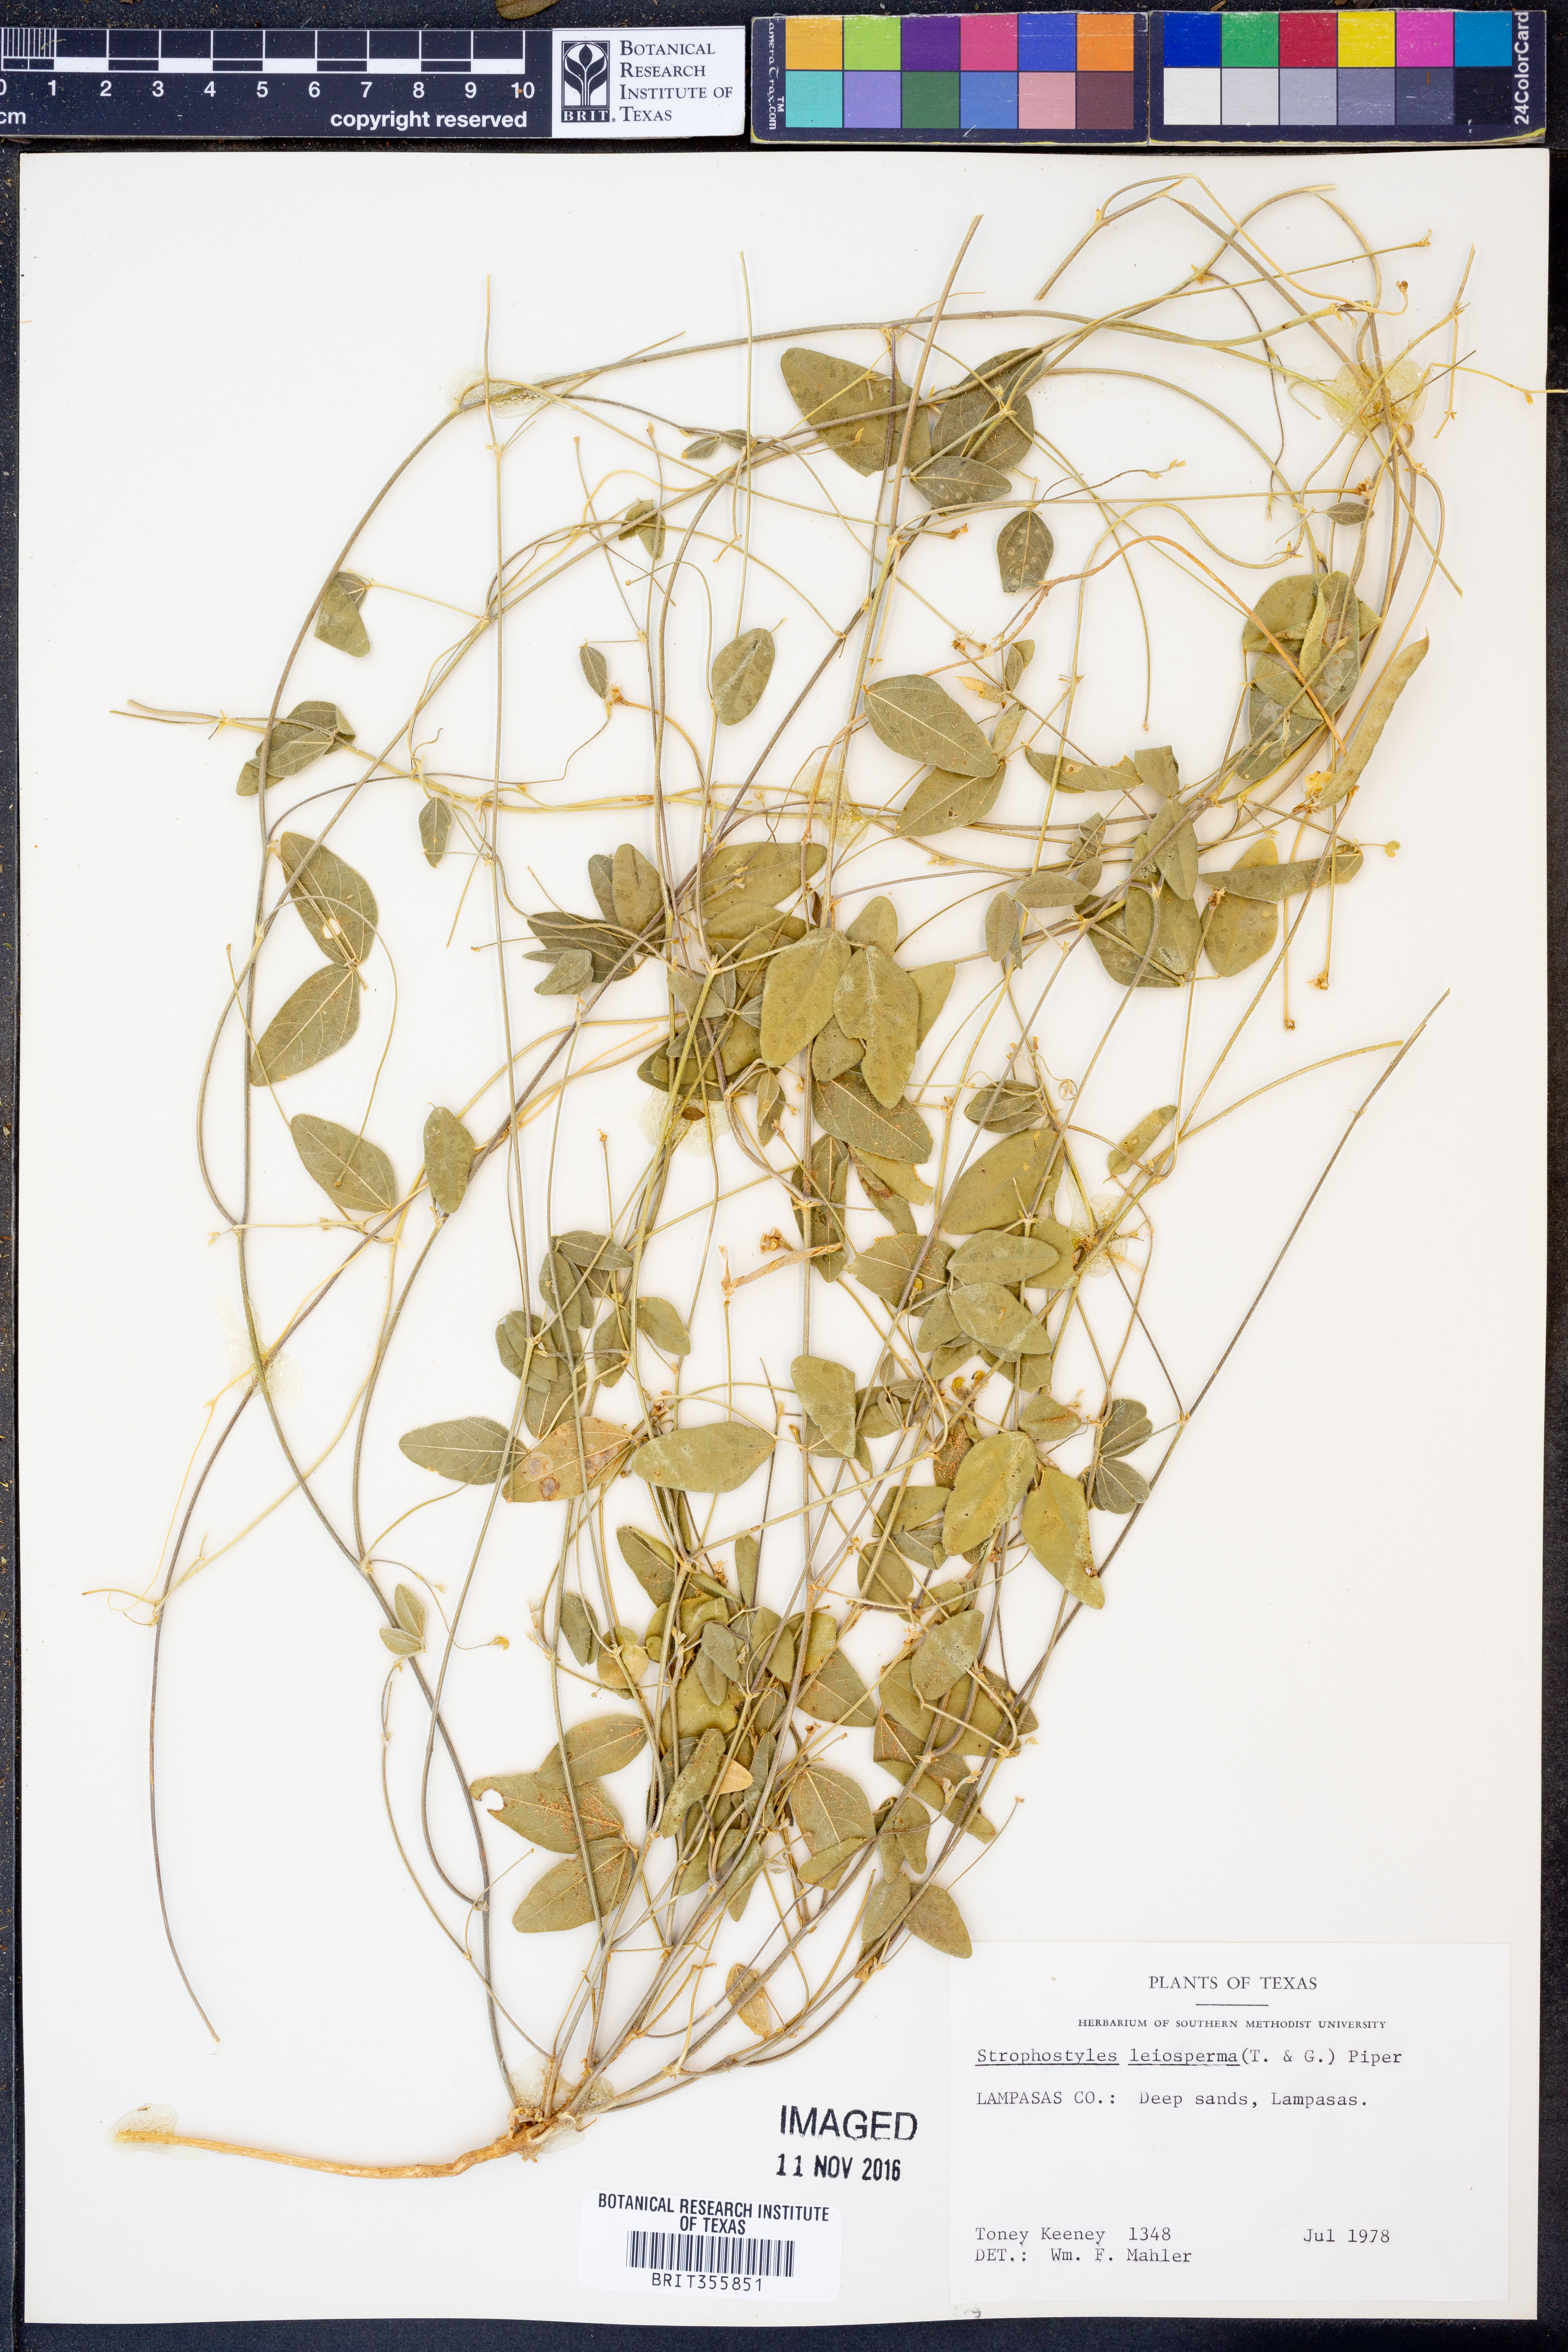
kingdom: Plantae
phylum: Tracheophyta
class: Magnoliopsida
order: Fabales
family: Fabaceae
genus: Strophostyles
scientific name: Strophostyles leiosperma
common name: Smooth-seed wild bean
